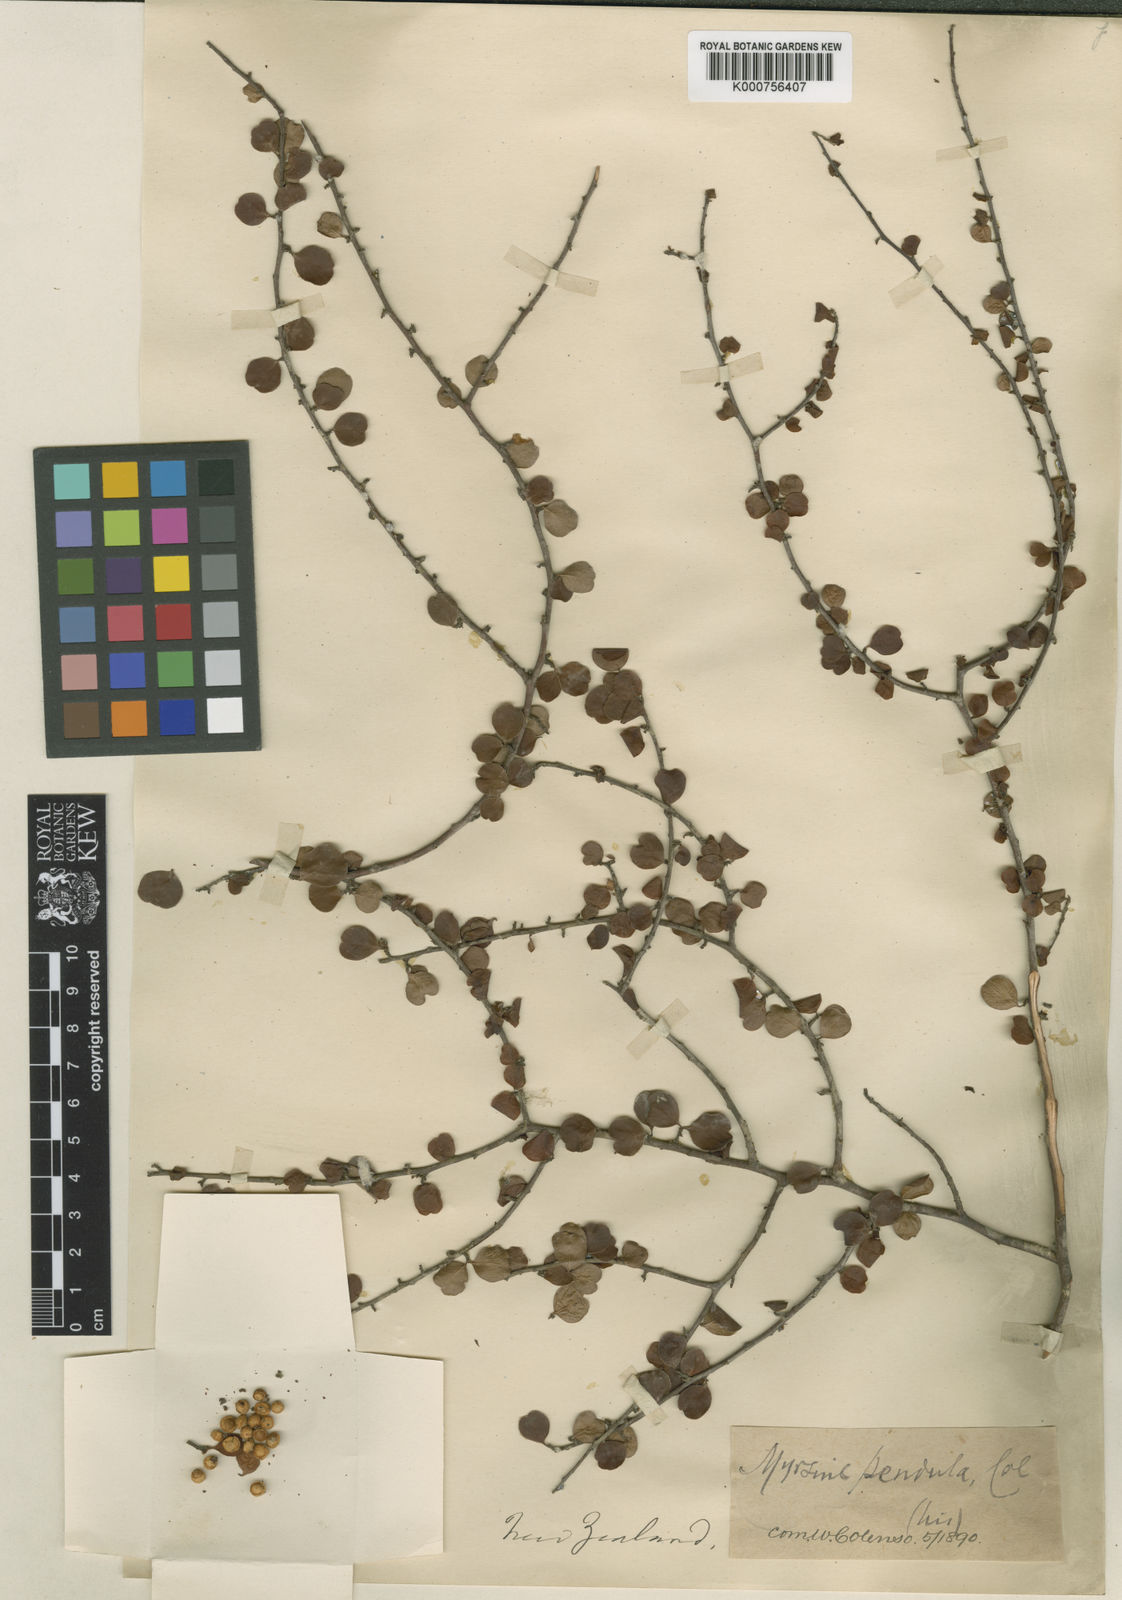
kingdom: Plantae
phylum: Tracheophyta
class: Magnoliopsida
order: Ericales
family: Primulaceae
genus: Myrsine
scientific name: Myrsine divaricata
